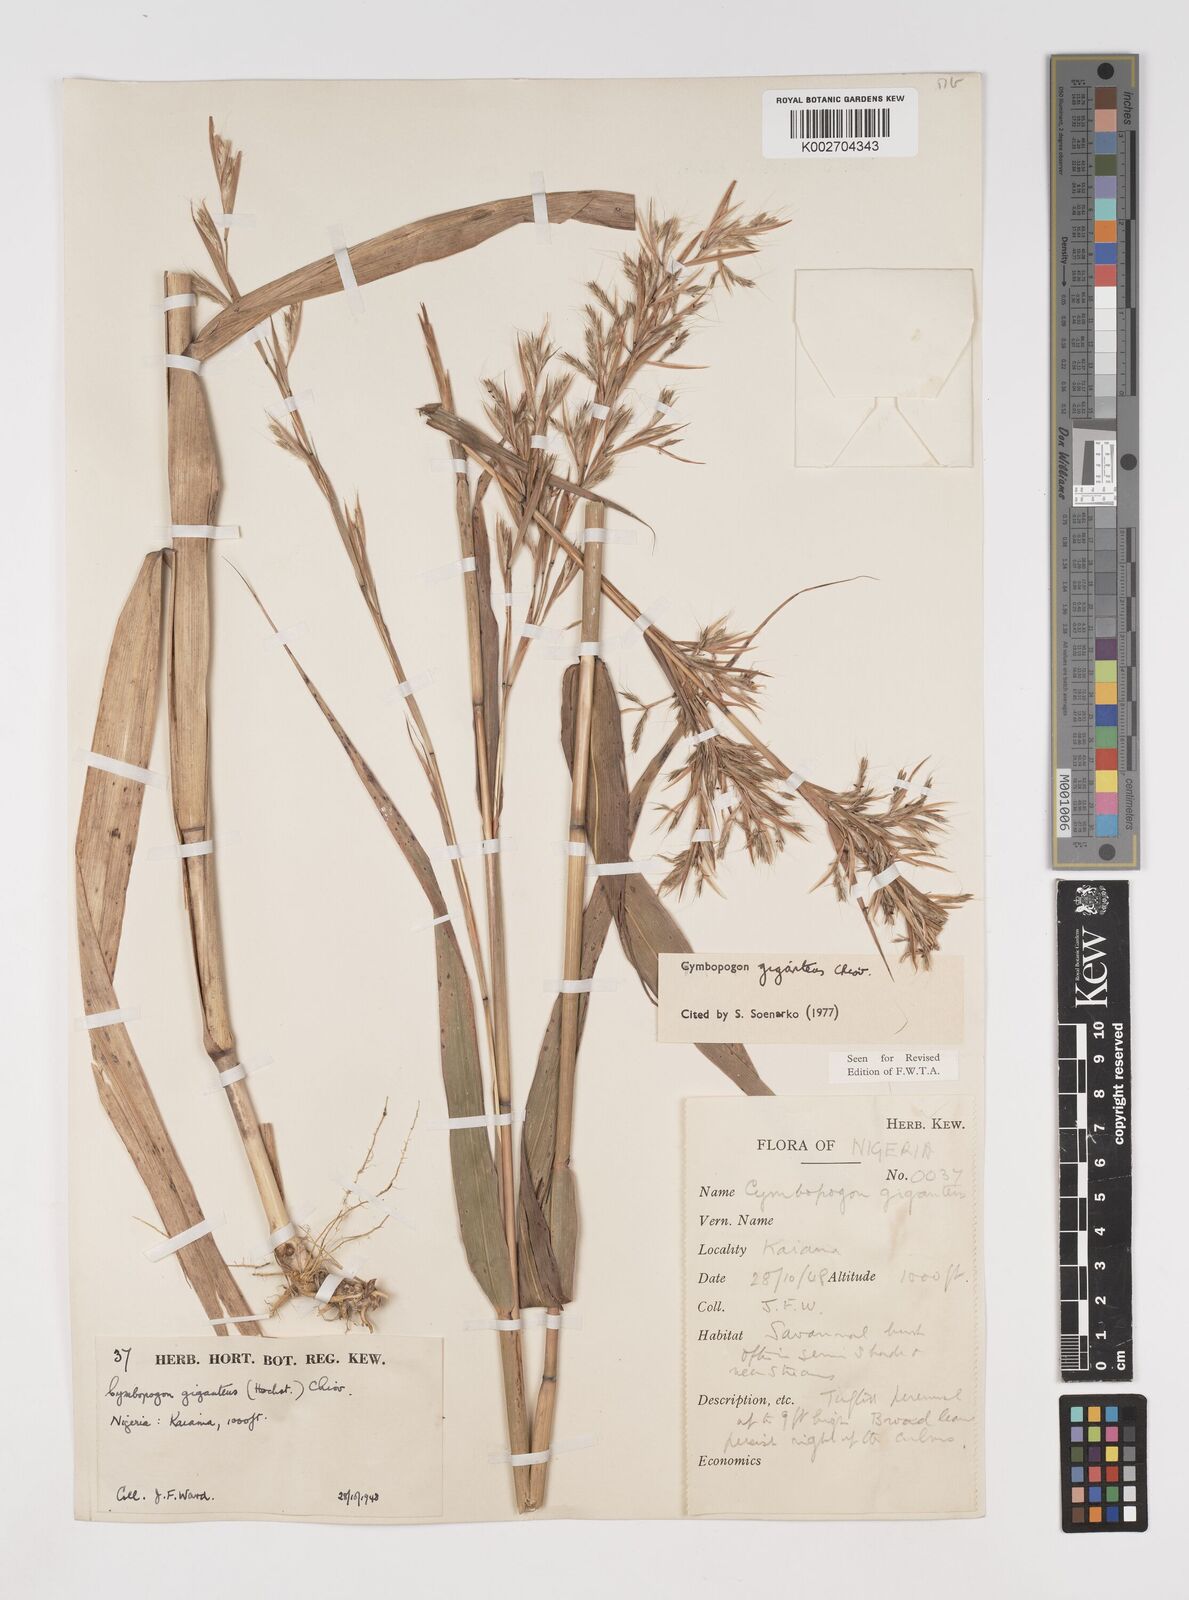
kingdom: Plantae
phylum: Tracheophyta
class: Liliopsida
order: Poales
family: Poaceae
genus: Cymbopogon
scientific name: Cymbopogon giganteus
